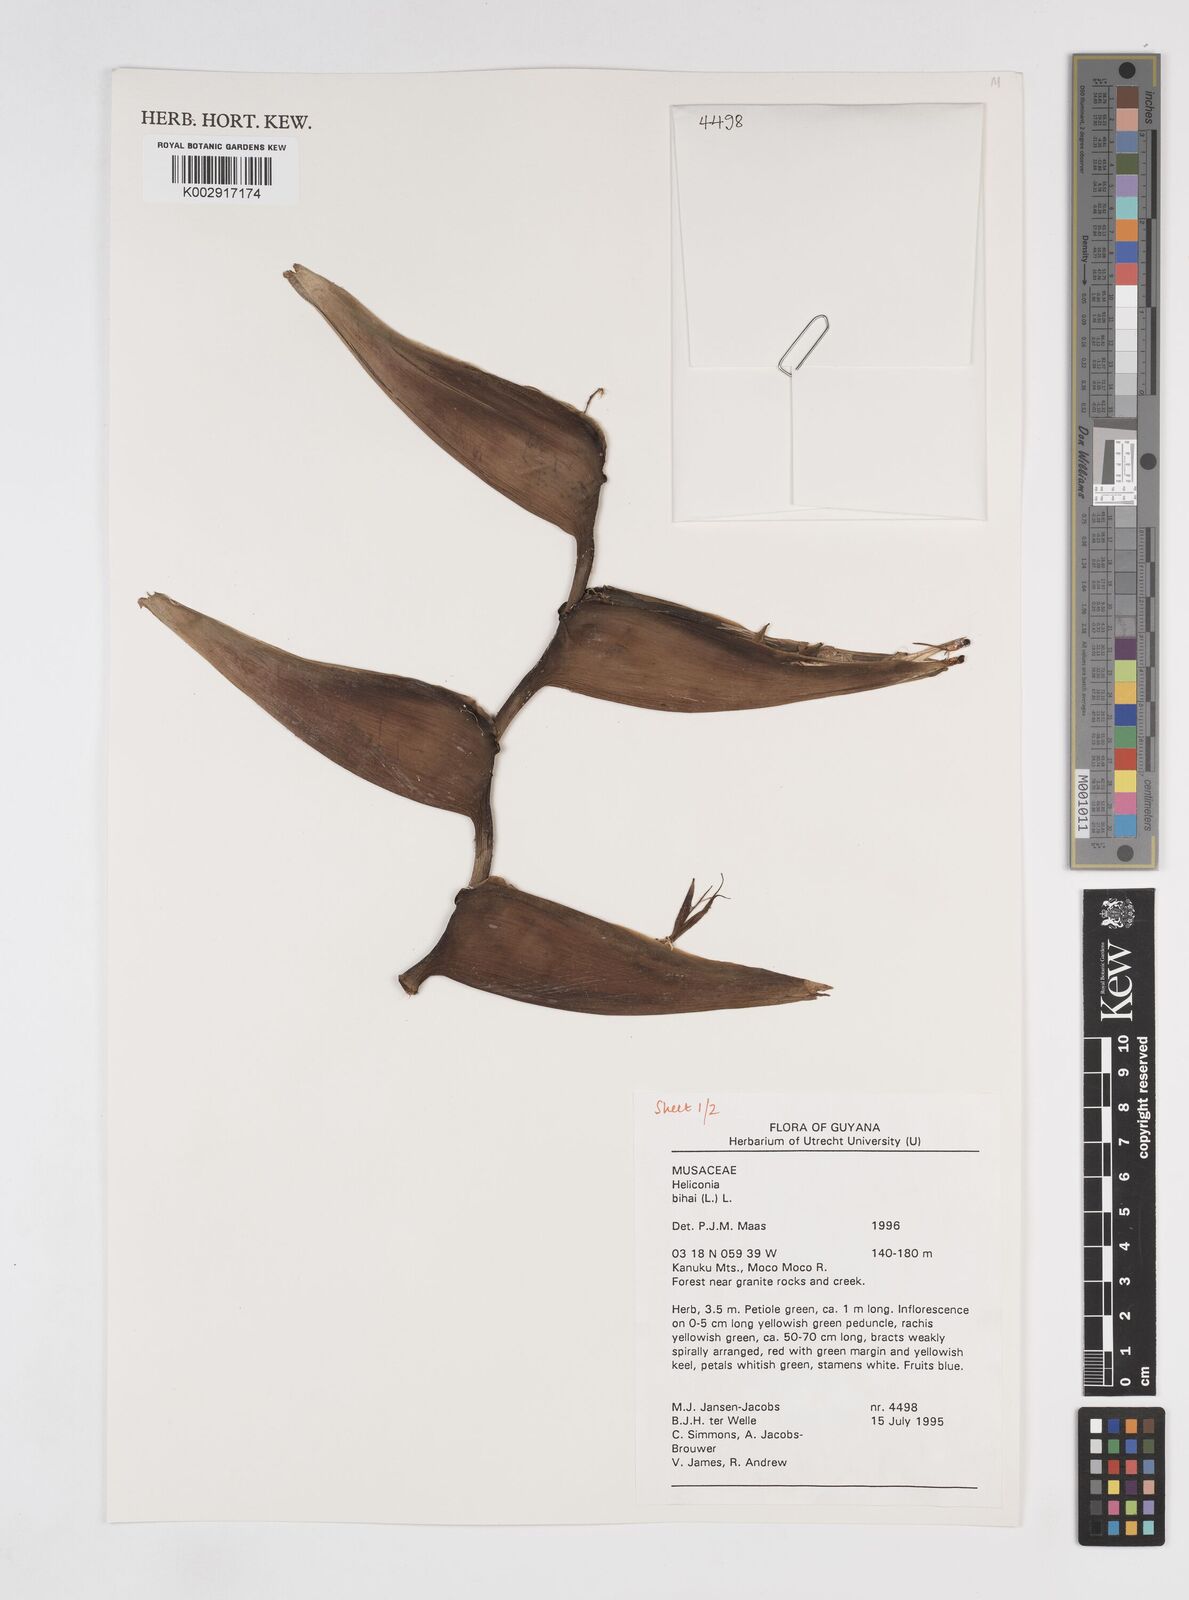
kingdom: Plantae
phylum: Tracheophyta
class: Liliopsida
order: Zingiberales
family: Heliconiaceae
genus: Heliconia
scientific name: Heliconia bihai
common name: Macaw flower
